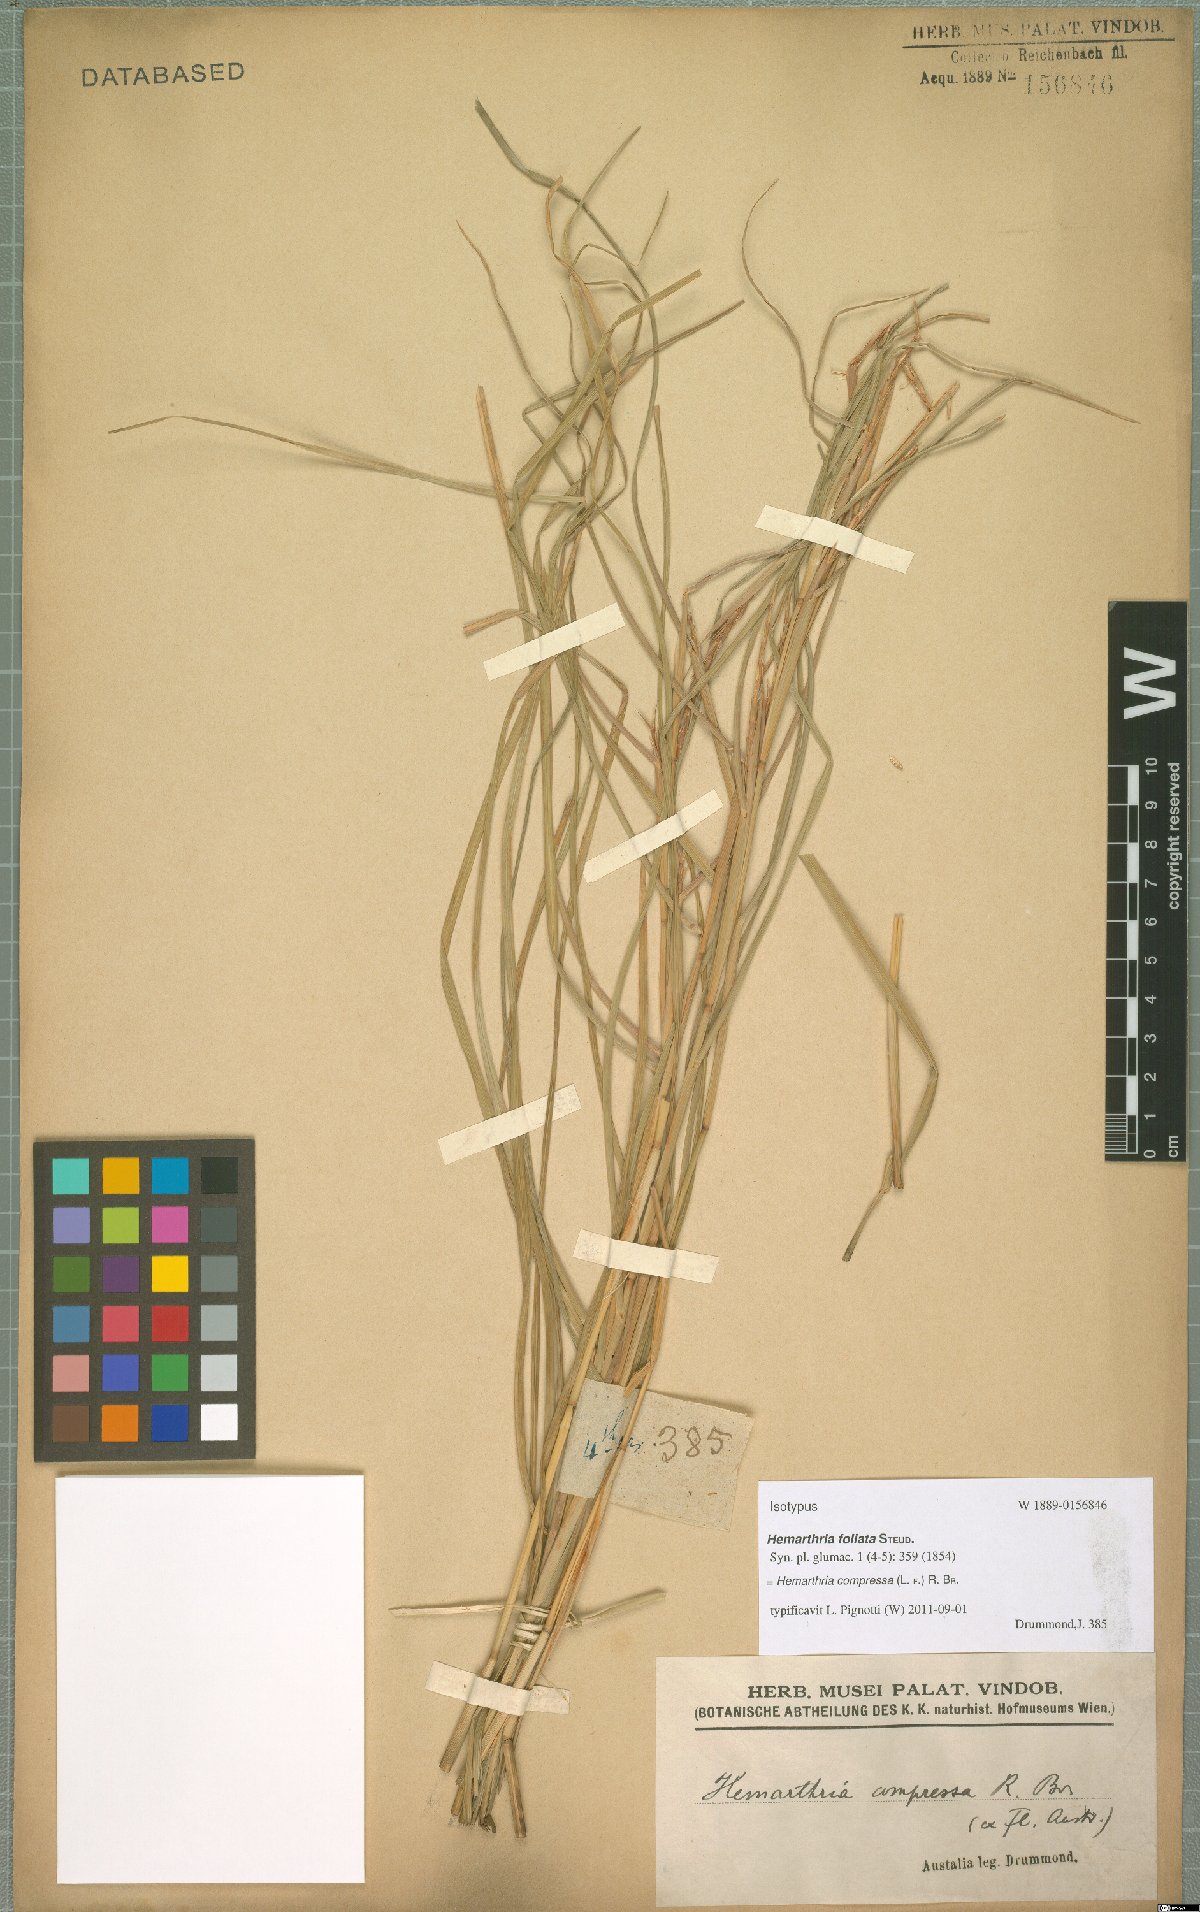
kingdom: Plantae
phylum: Tracheophyta
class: Liliopsida
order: Poales
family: Poaceae
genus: Hemarthria
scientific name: Hemarthria compressa
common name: Whip grass
